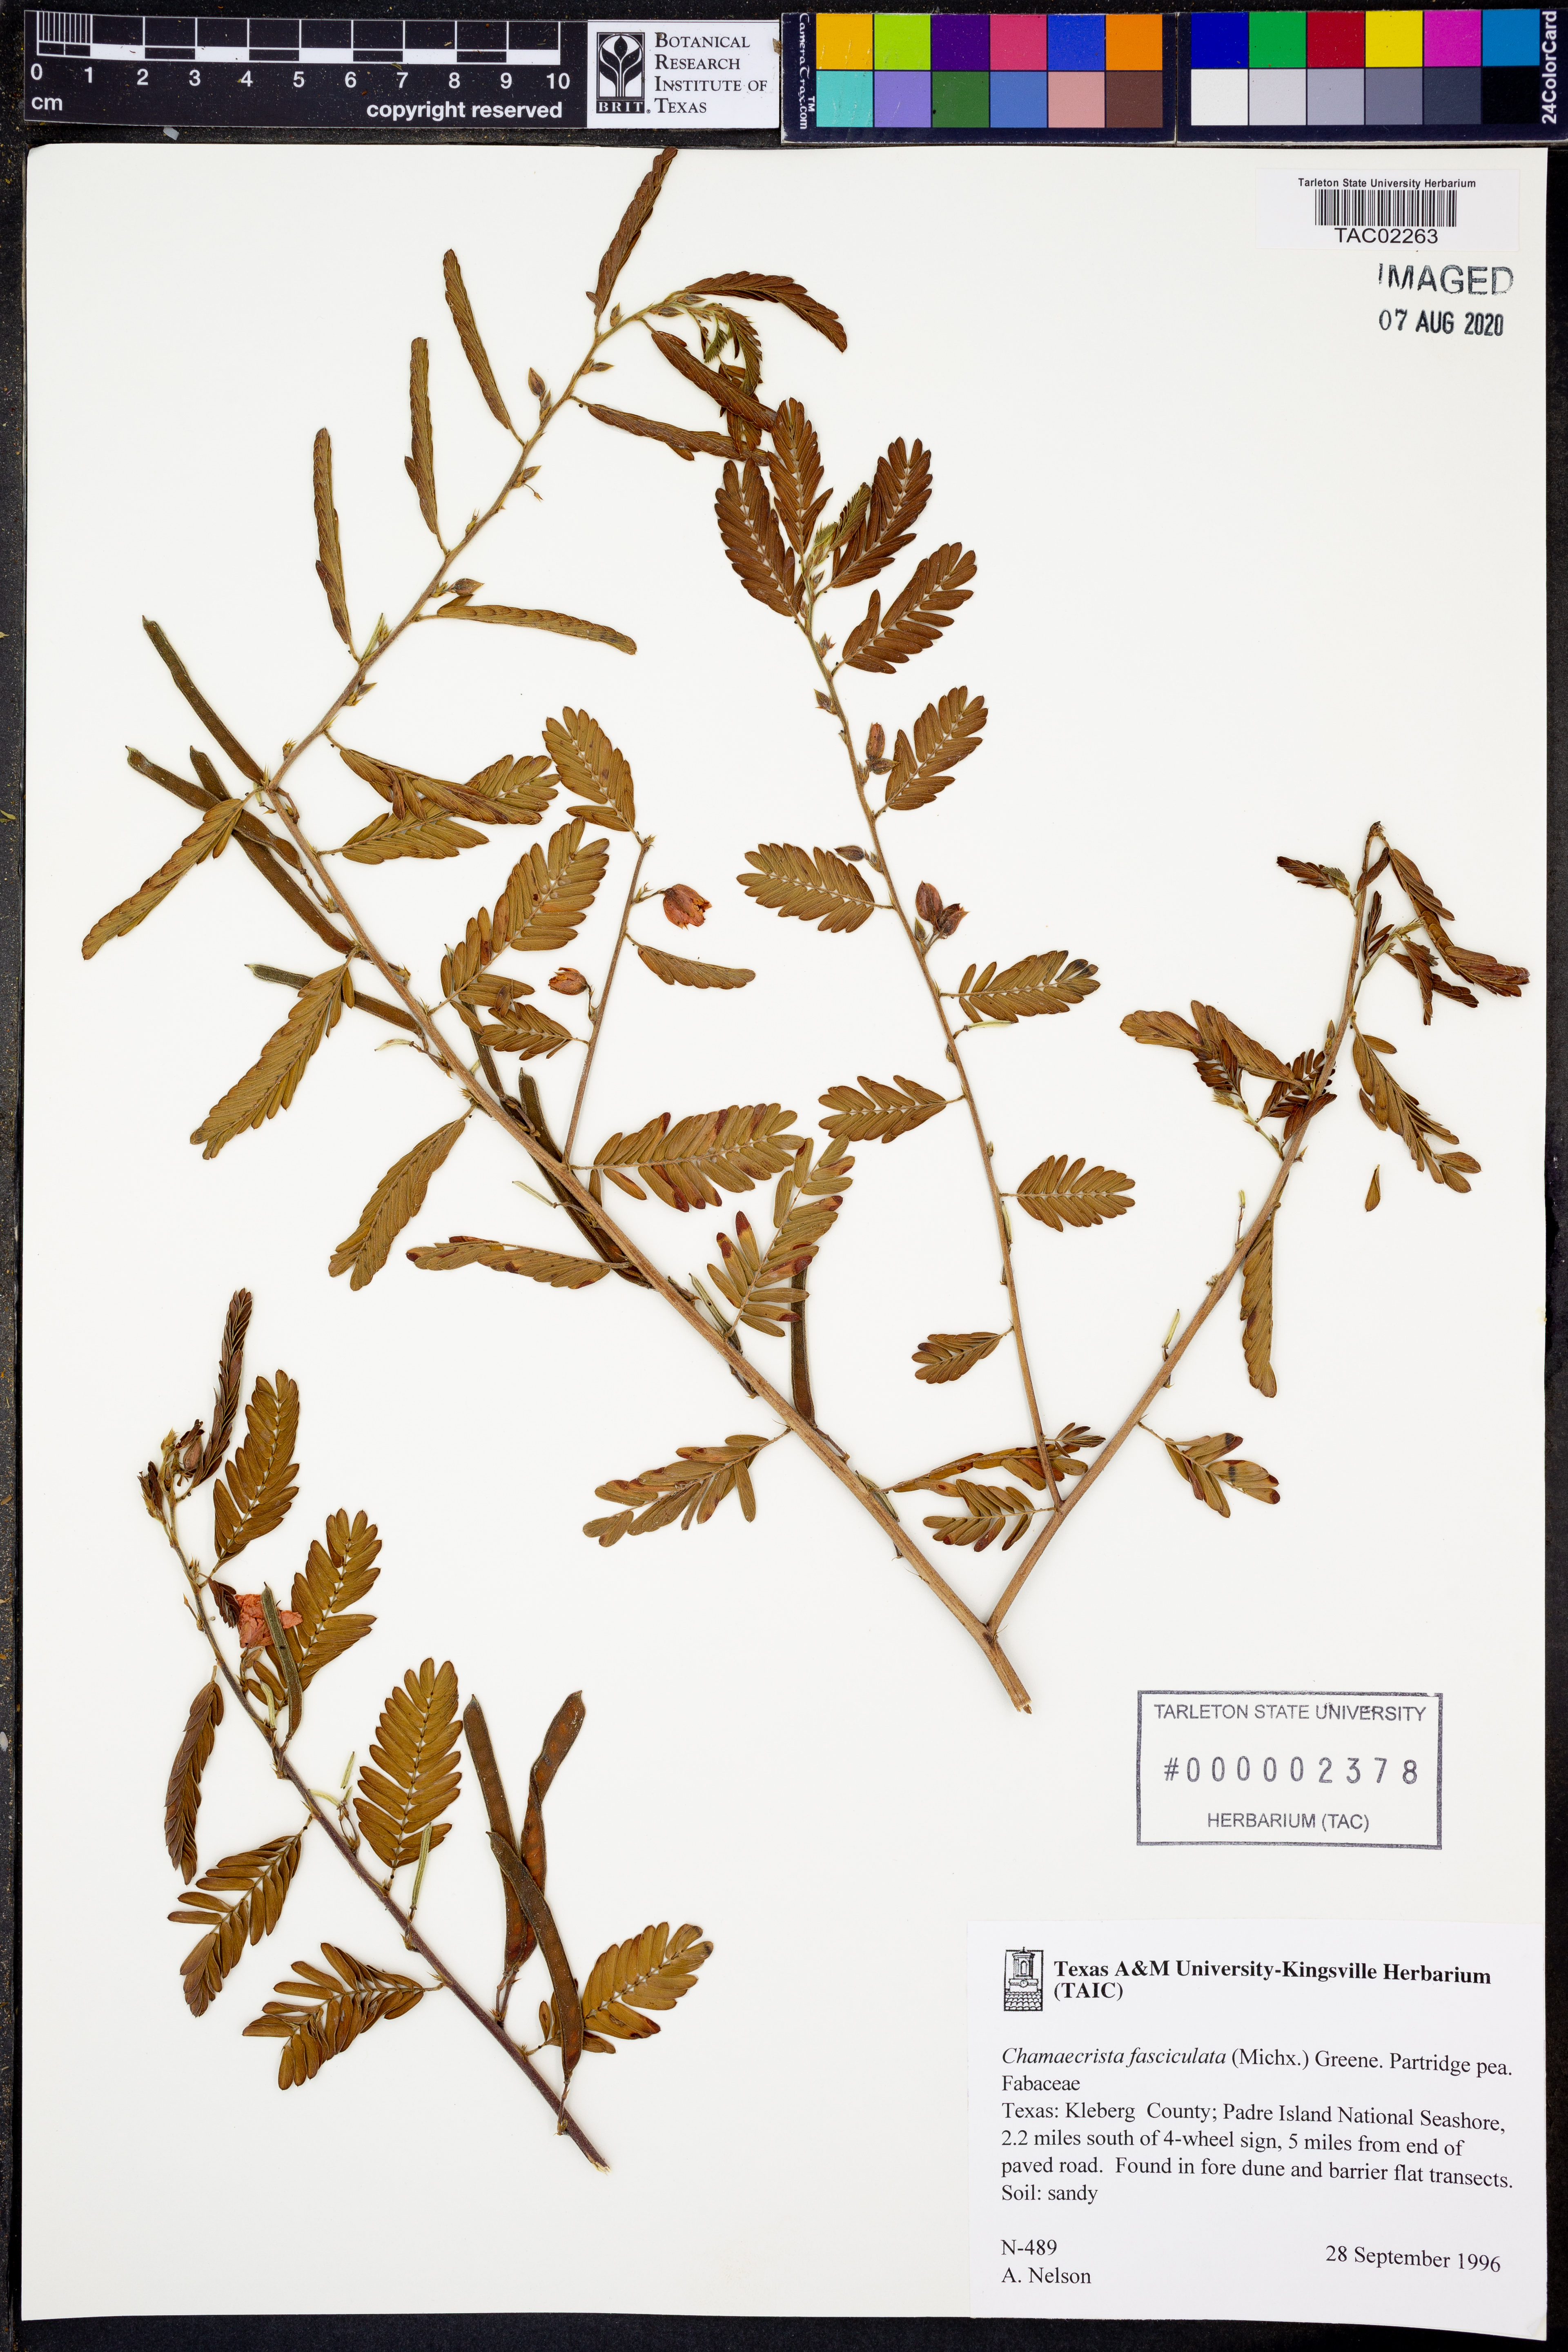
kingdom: Plantae
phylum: Tracheophyta
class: Magnoliopsida
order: Fabales
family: Fabaceae
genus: Chamaecrista
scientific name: Chamaecrista fasciculata
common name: Golden cassia
